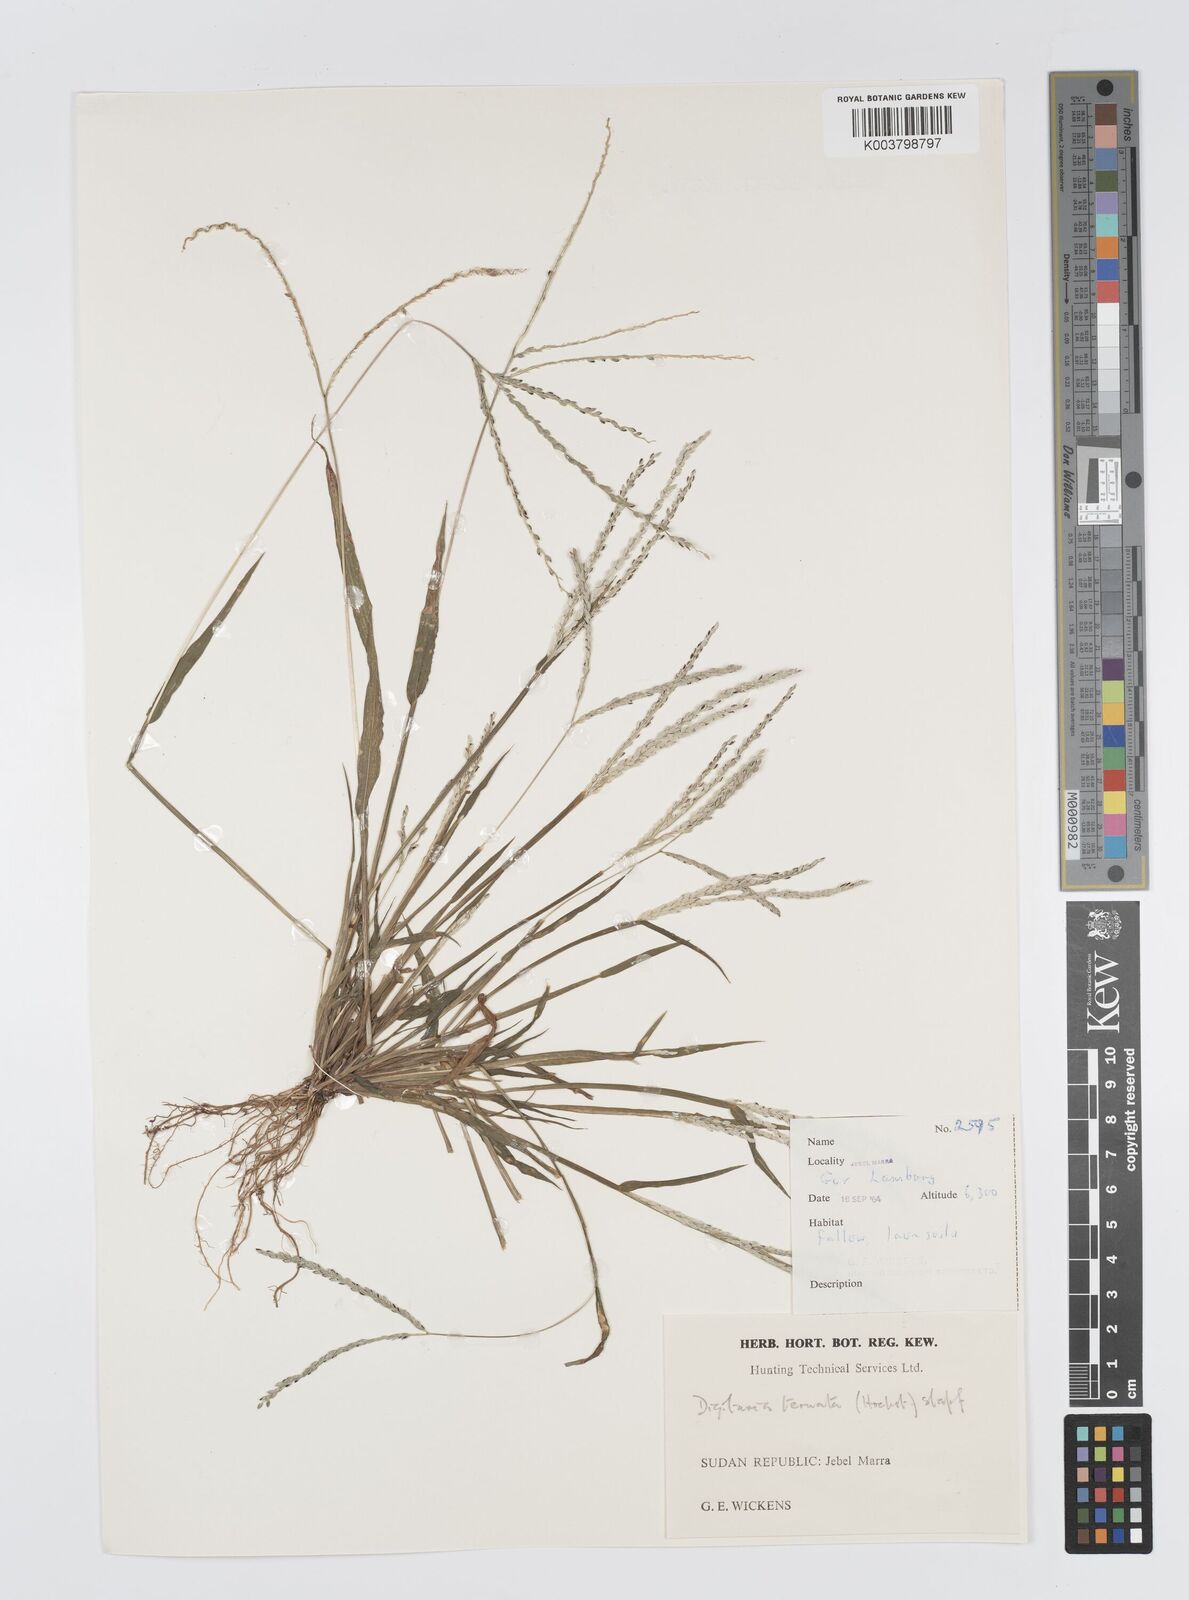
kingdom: Plantae
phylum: Tracheophyta
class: Liliopsida
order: Poales
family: Poaceae
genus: Digitaria
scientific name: Digitaria ternata
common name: Blackseed crabgrass
